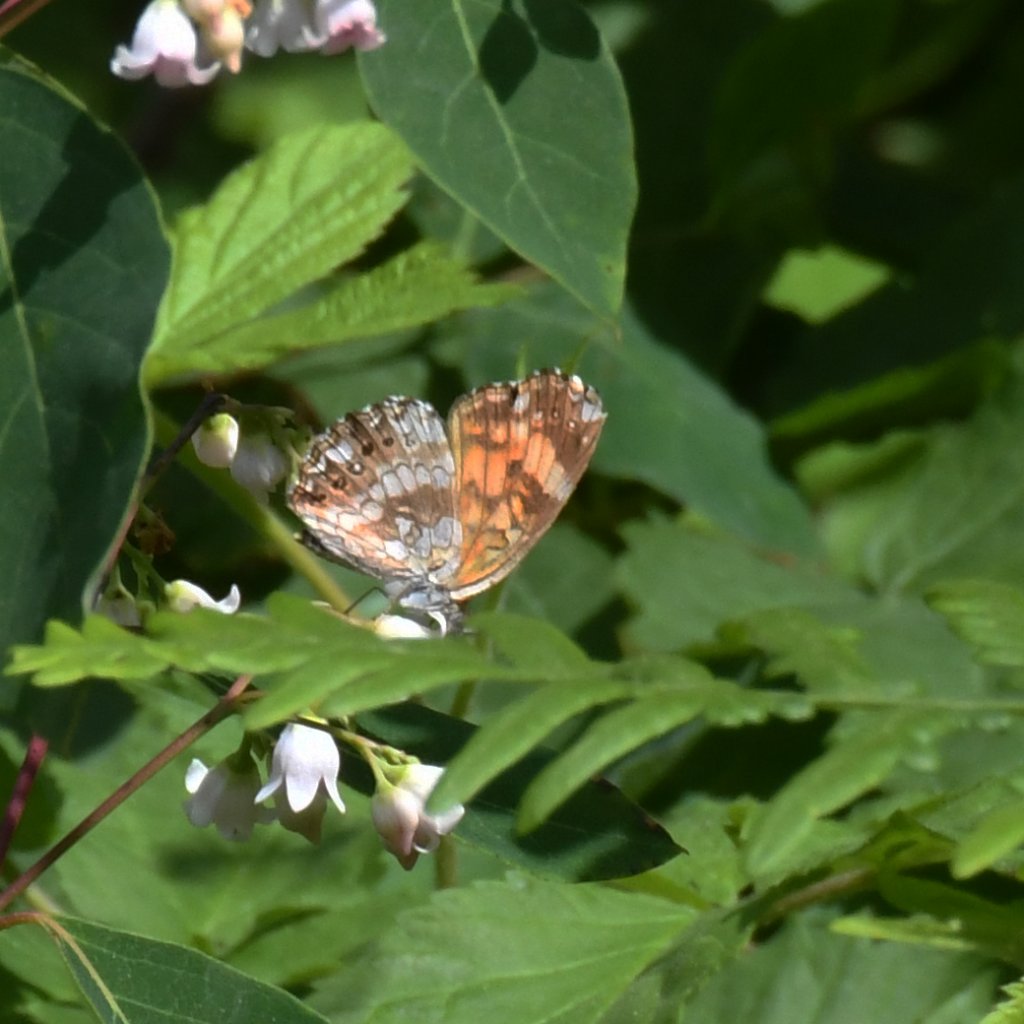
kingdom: Animalia
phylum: Arthropoda
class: Insecta
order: Lepidoptera
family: Nymphalidae
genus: Chlosyne
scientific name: Chlosyne nycteis
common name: Silvery Checkerspot
